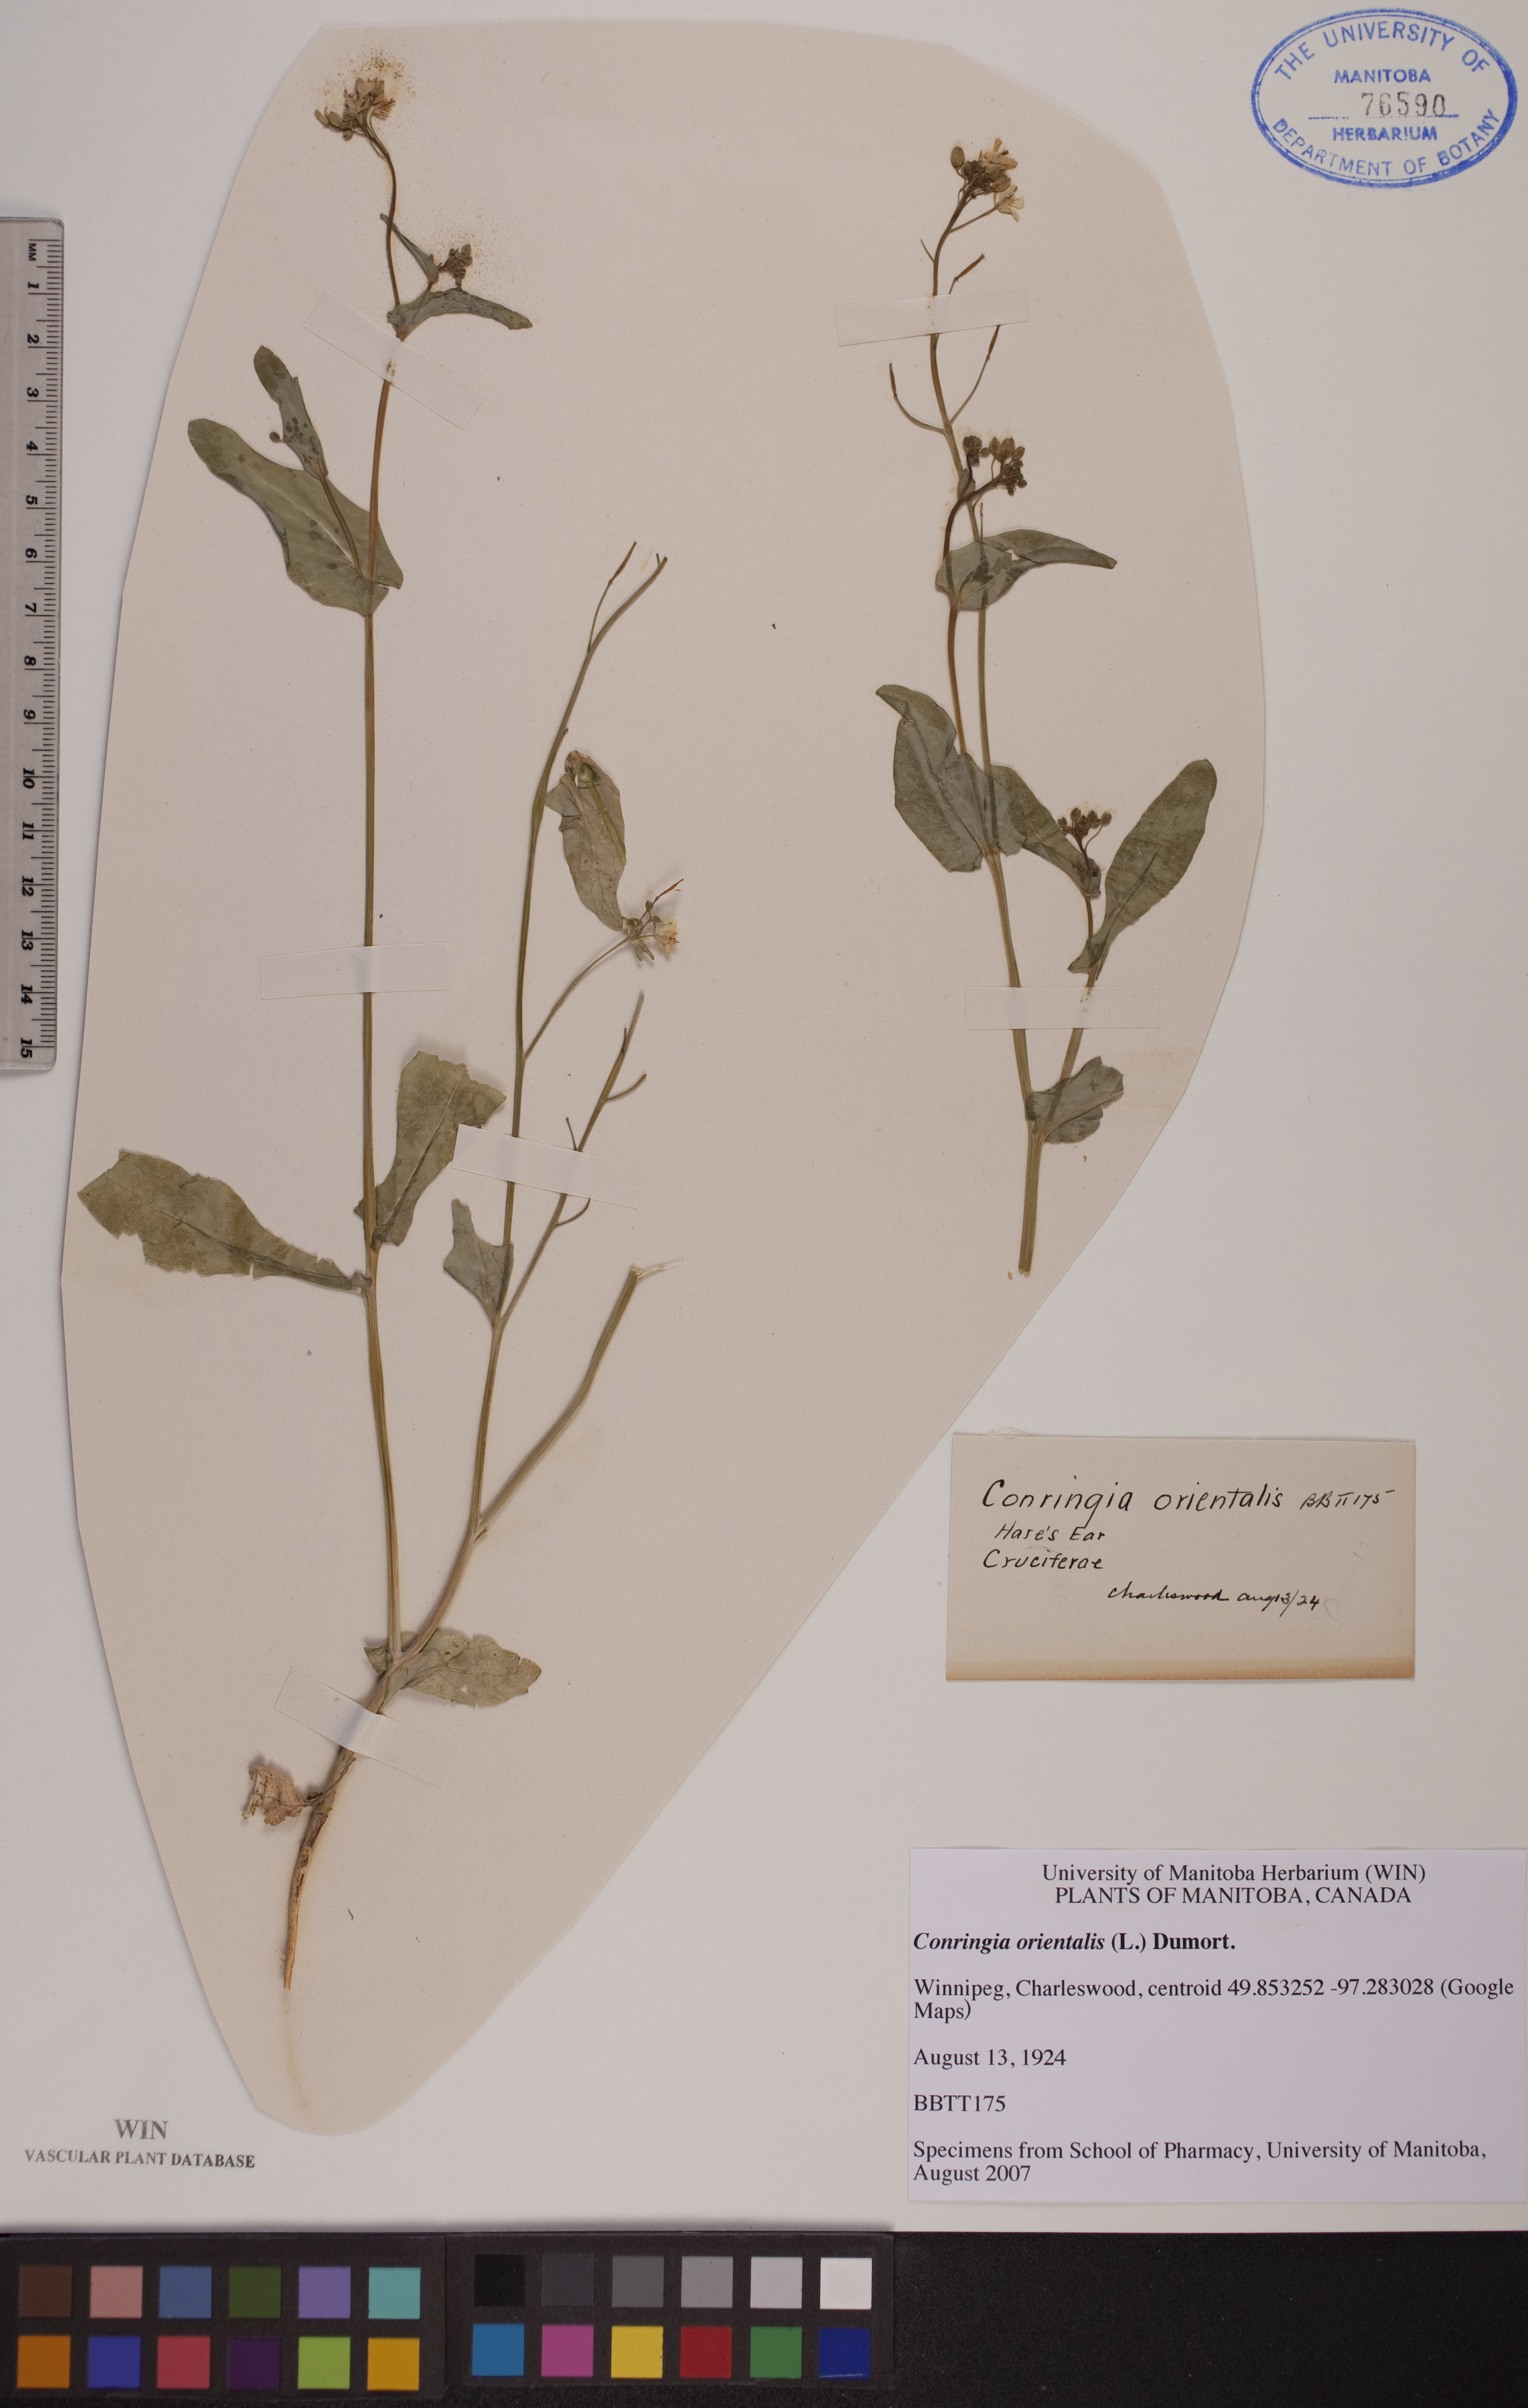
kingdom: Plantae
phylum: Tracheophyta
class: Magnoliopsida
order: Brassicales
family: Brassicaceae
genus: Conringia
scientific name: Conringia orientalis
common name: Hare's ear mustard
